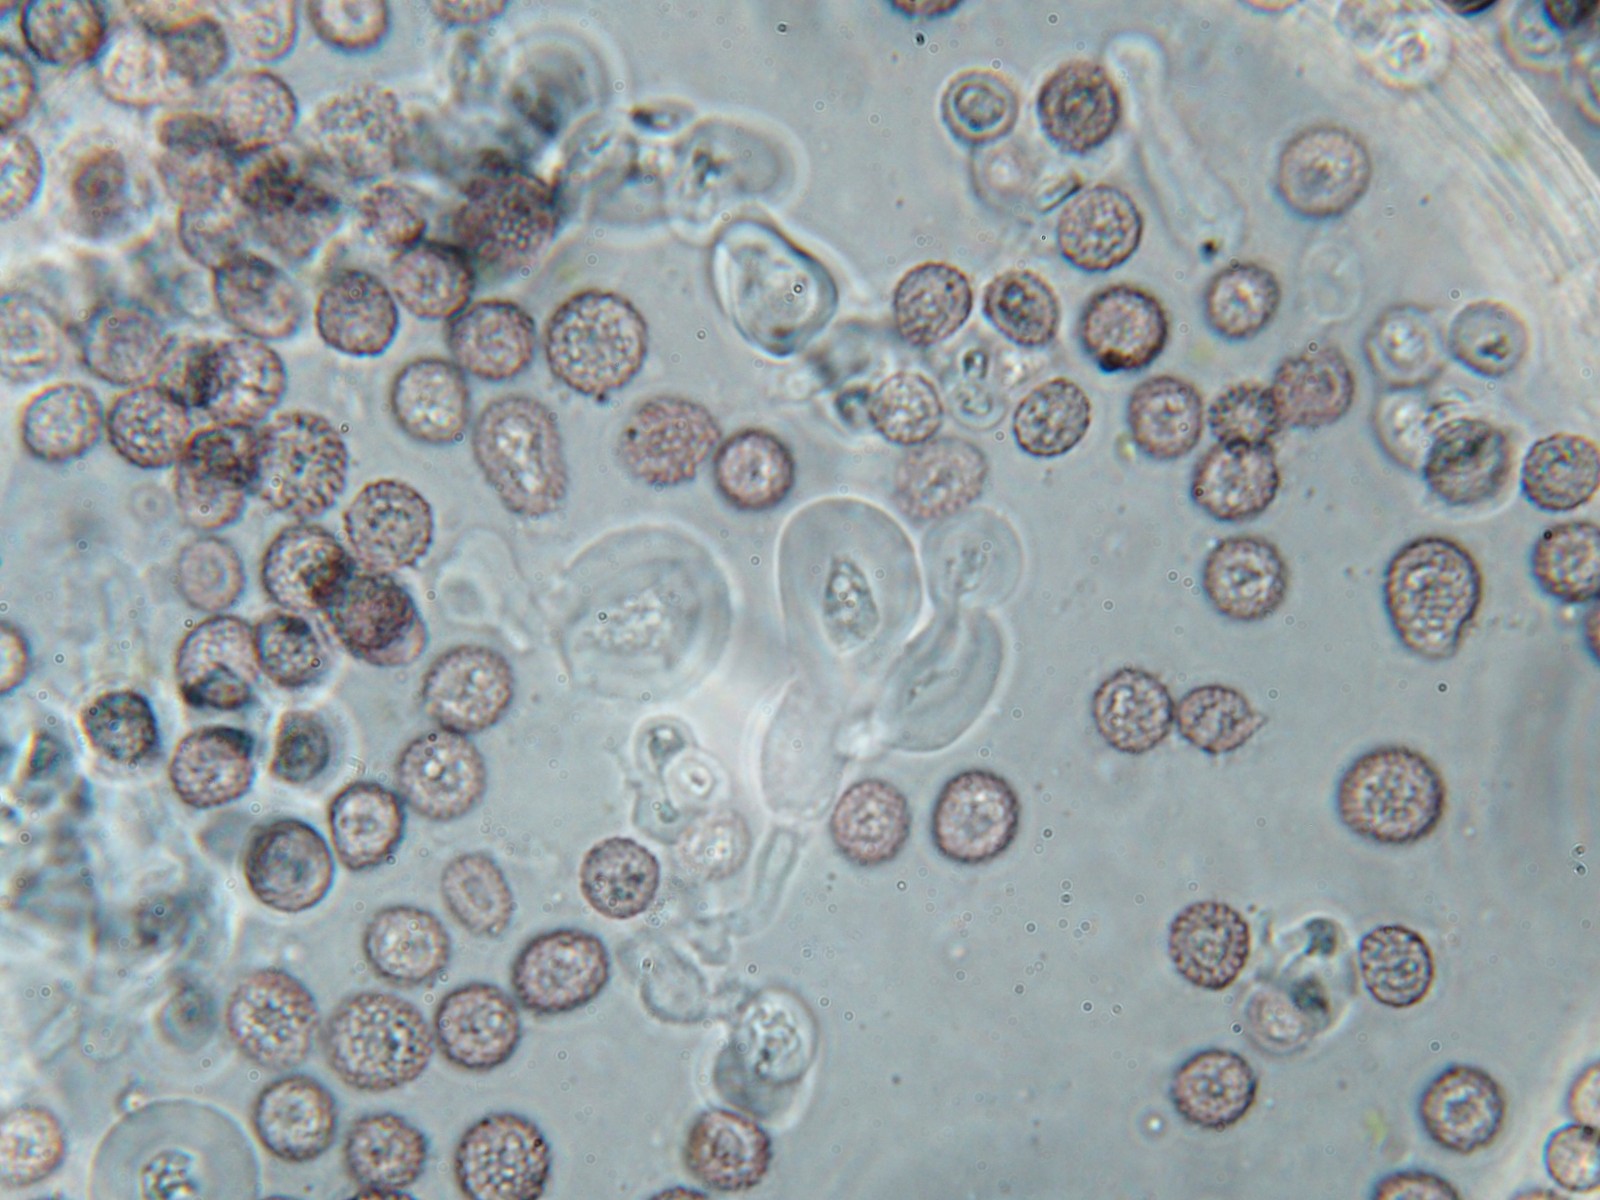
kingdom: Fungi
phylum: Basidiomycota
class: Microbotryomycetes
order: Microbotryales
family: Microbotryaceae
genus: Microbotryum
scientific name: Microbotryum lychnidis-dioicae
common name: Campion anther smut
